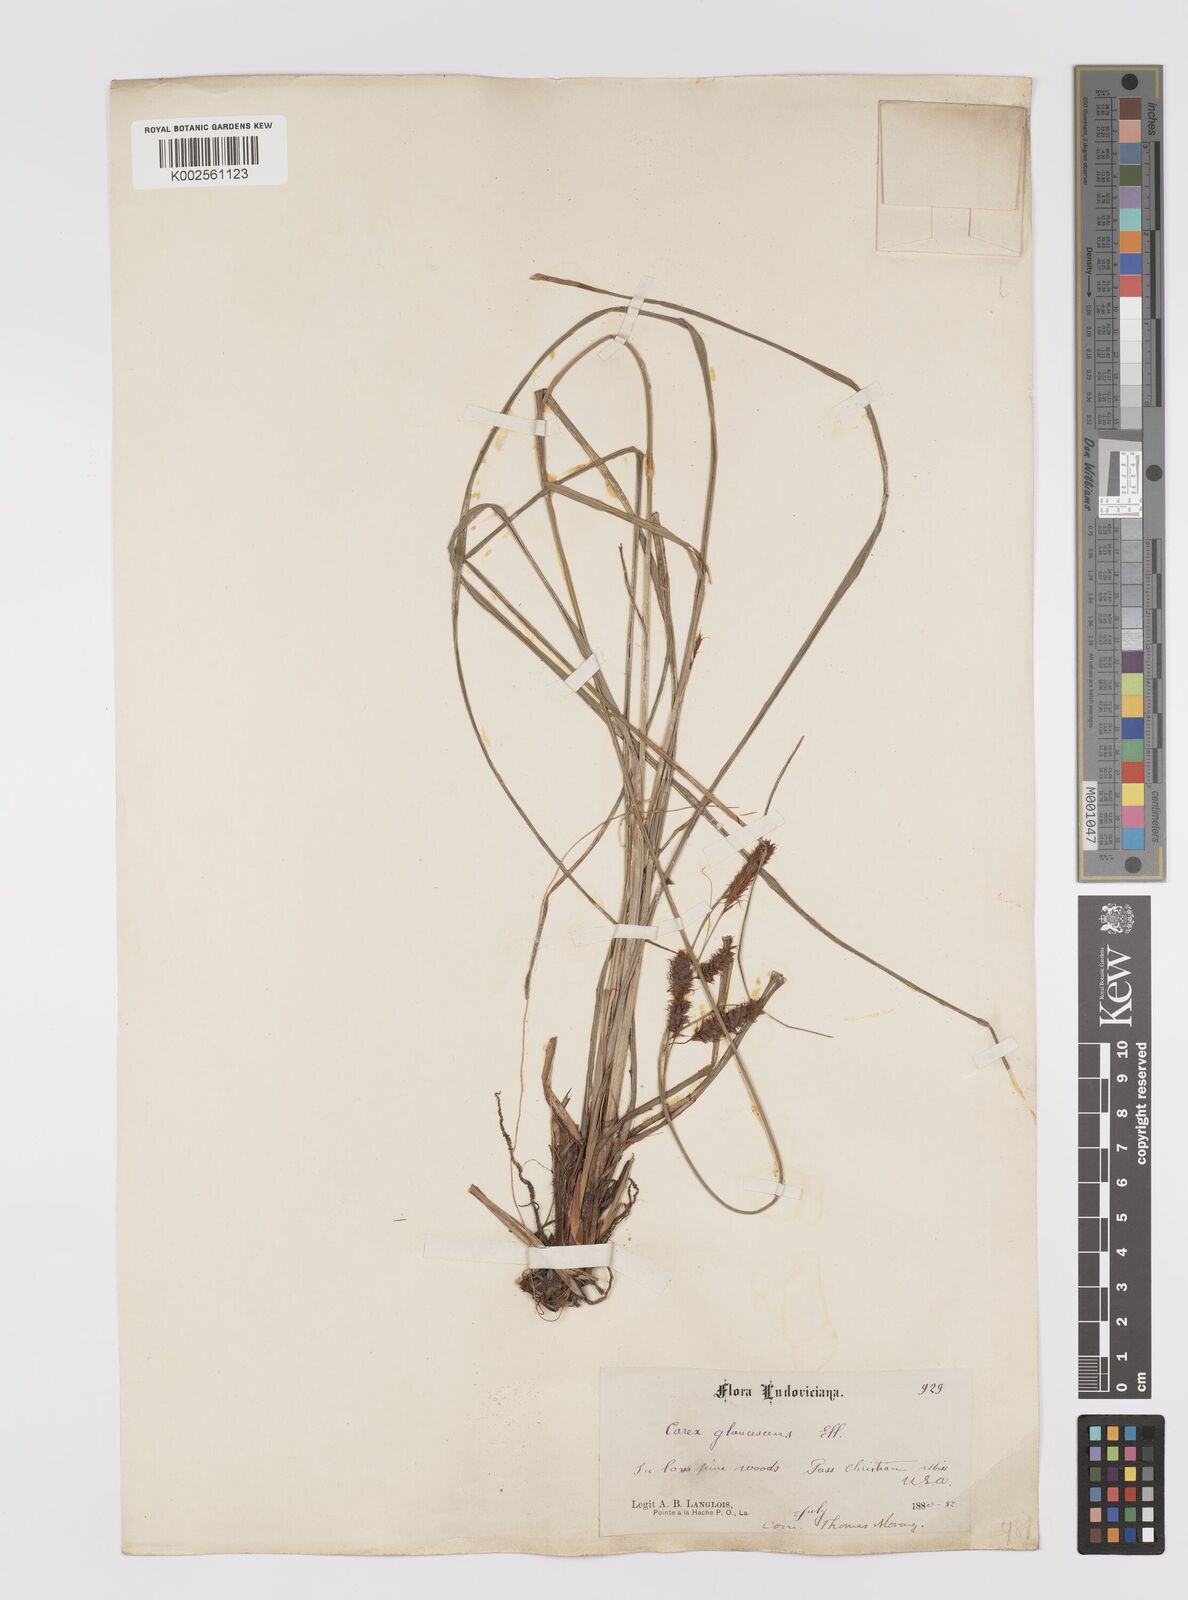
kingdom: Plantae
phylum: Tracheophyta
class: Liliopsida
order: Poales
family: Cyperaceae
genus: Carex
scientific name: Carex glaucescens
